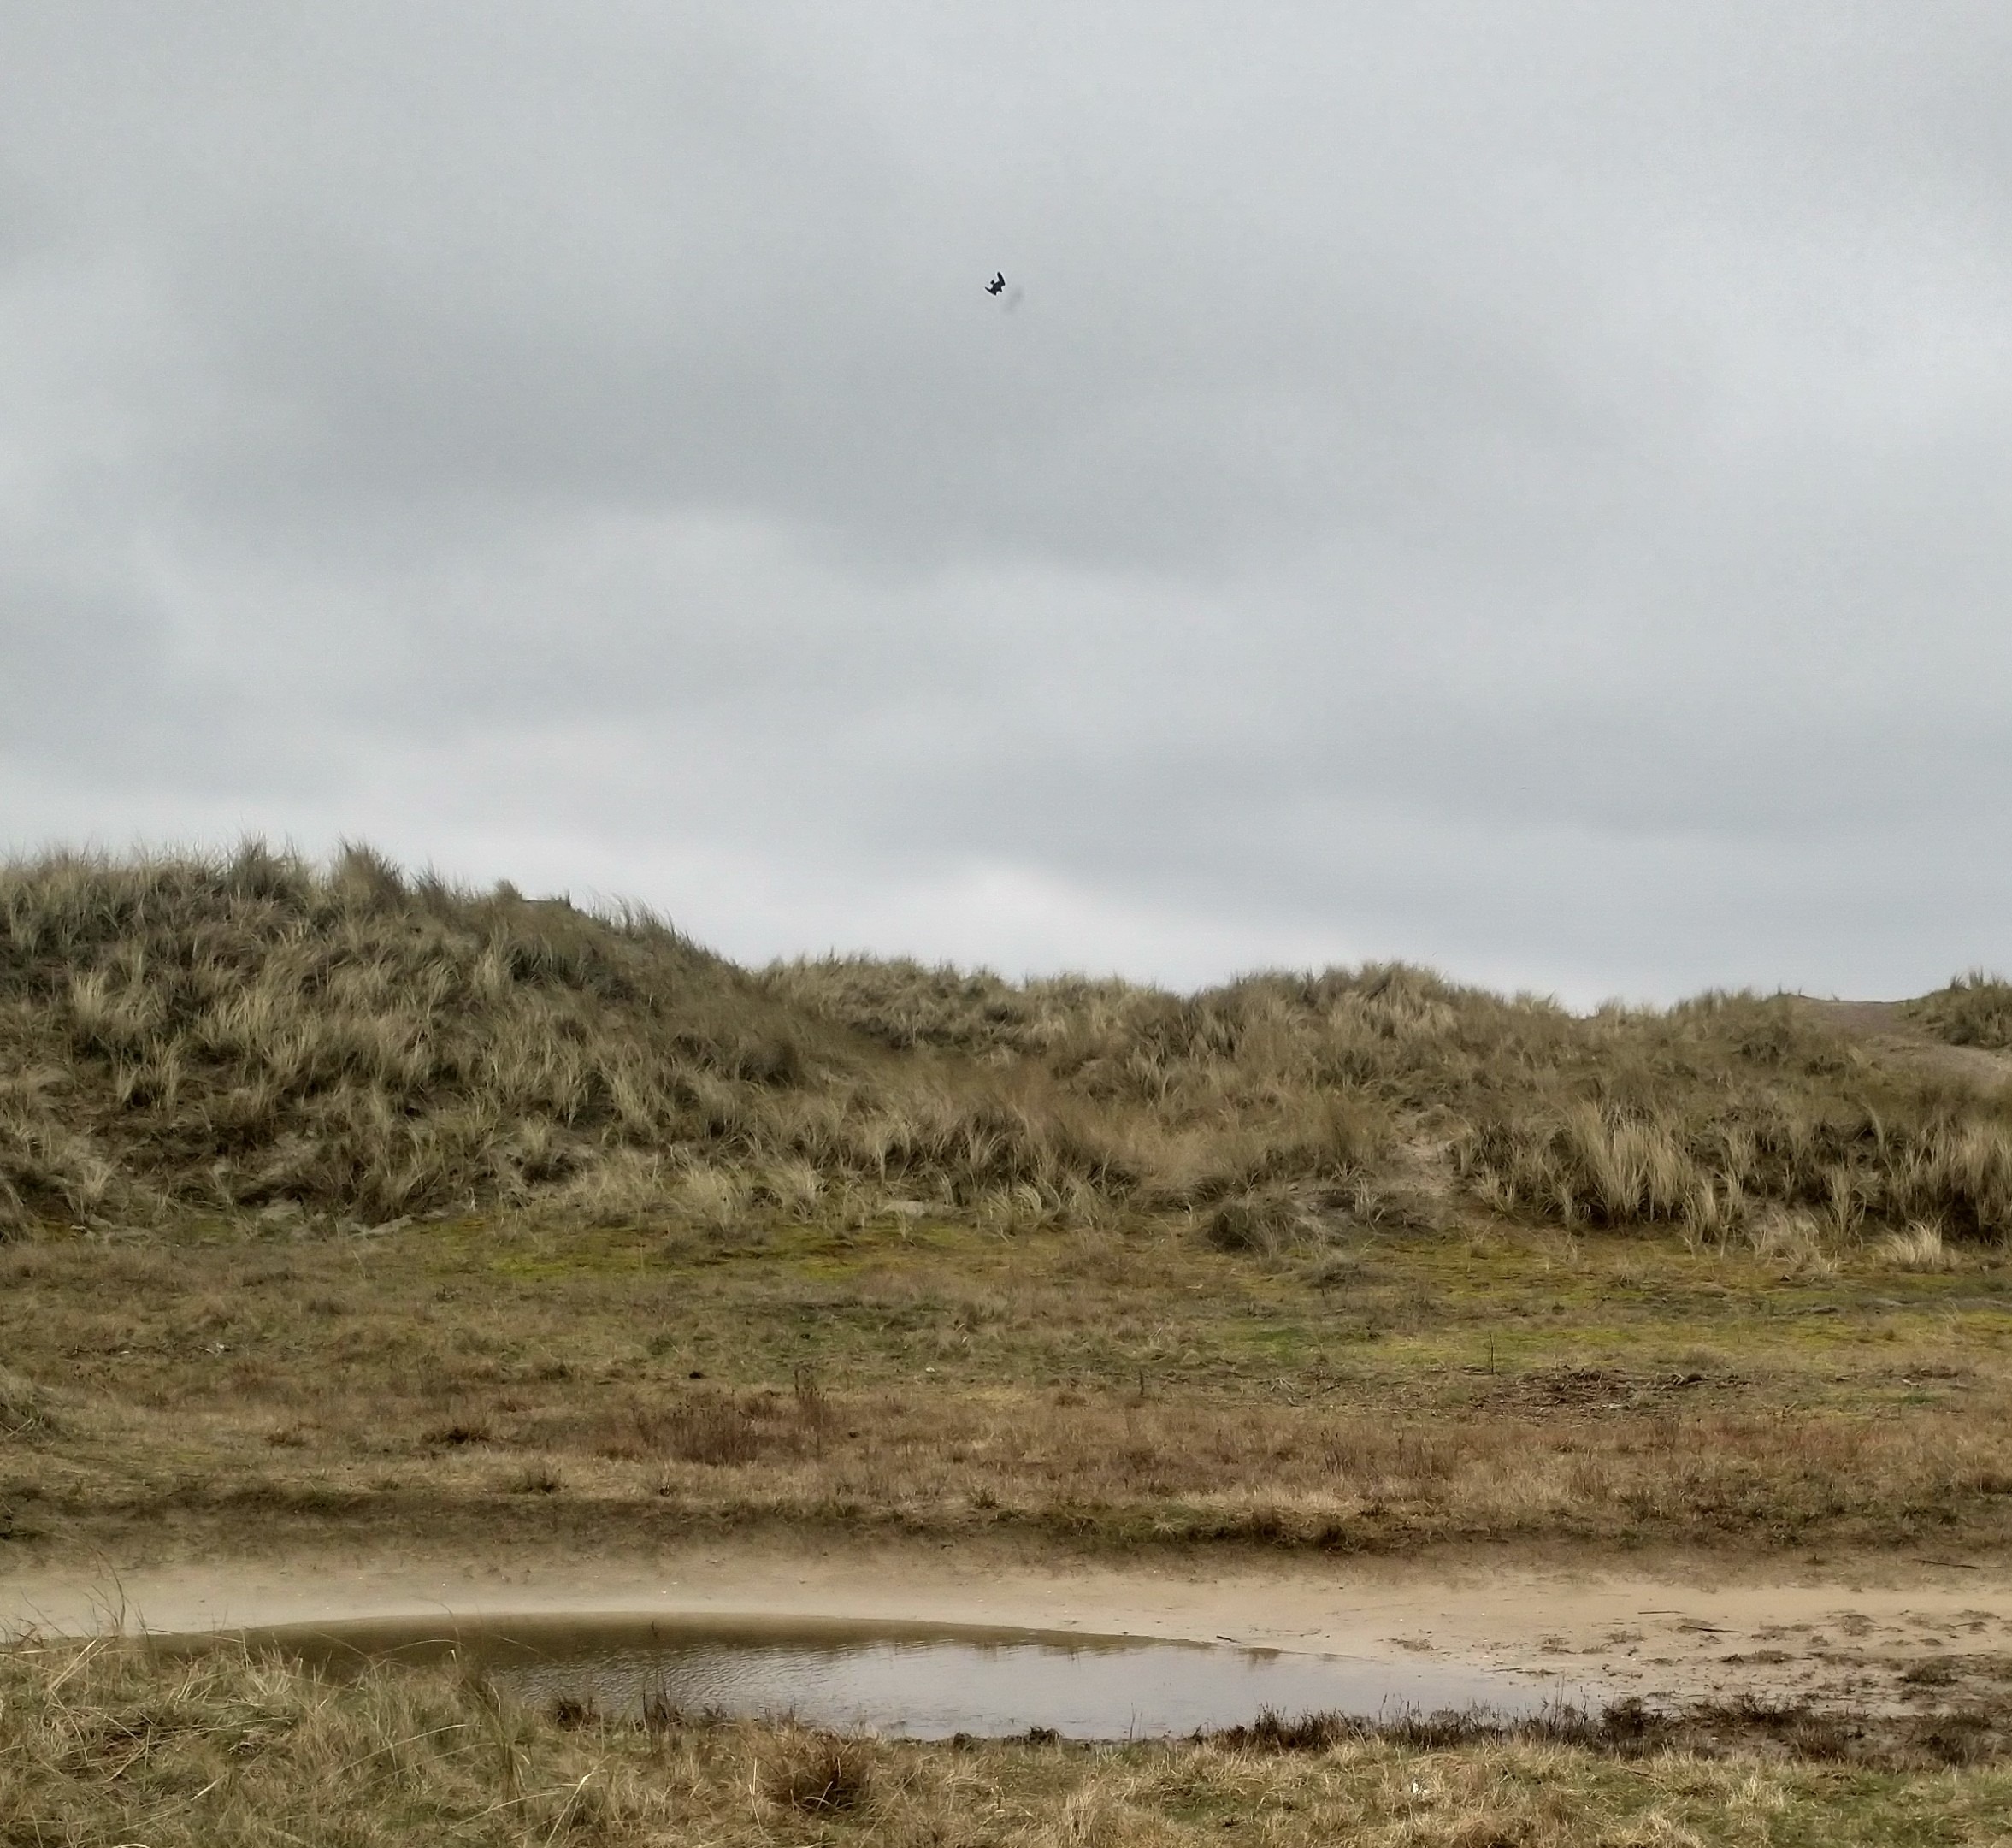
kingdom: Animalia
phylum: Chordata
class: Aves
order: Falconiformes
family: Falconidae
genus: Falco
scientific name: Falco peregrinus
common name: Vandrefalk
